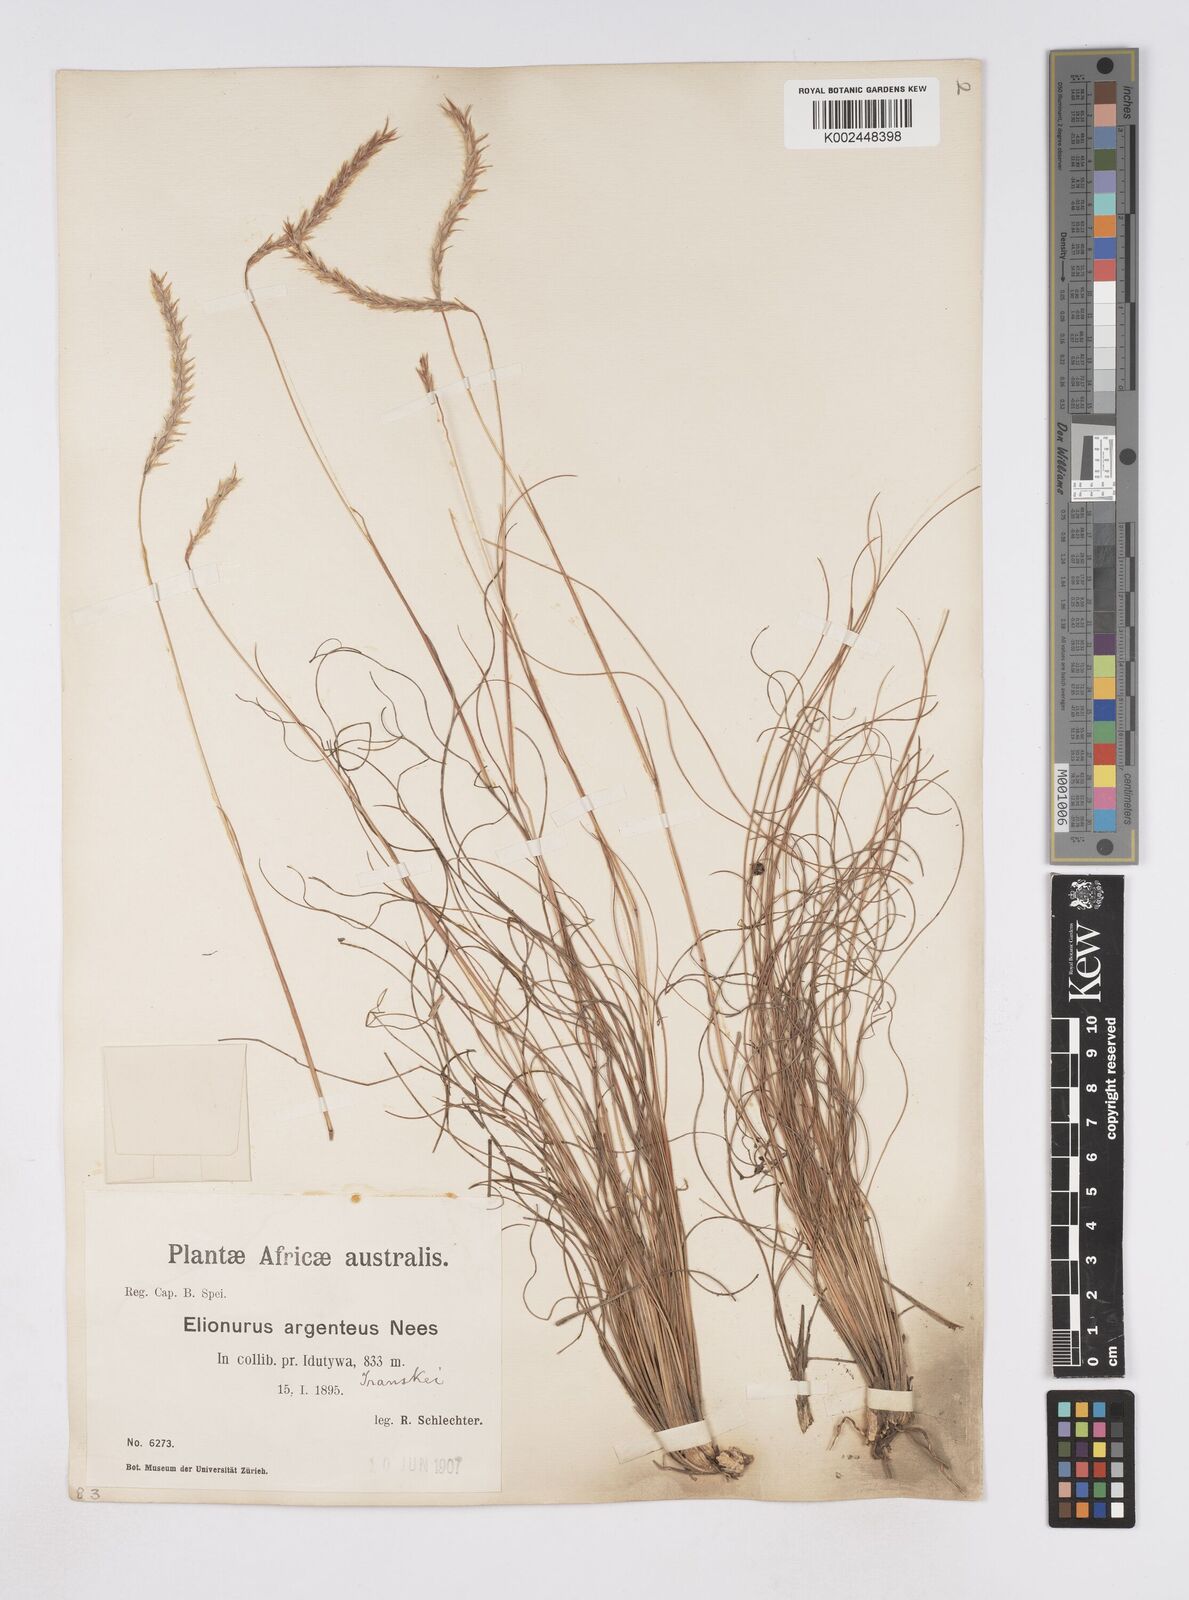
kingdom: Plantae
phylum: Tracheophyta
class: Liliopsida
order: Poales
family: Poaceae
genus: Elionurus
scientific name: Elionurus muticus
